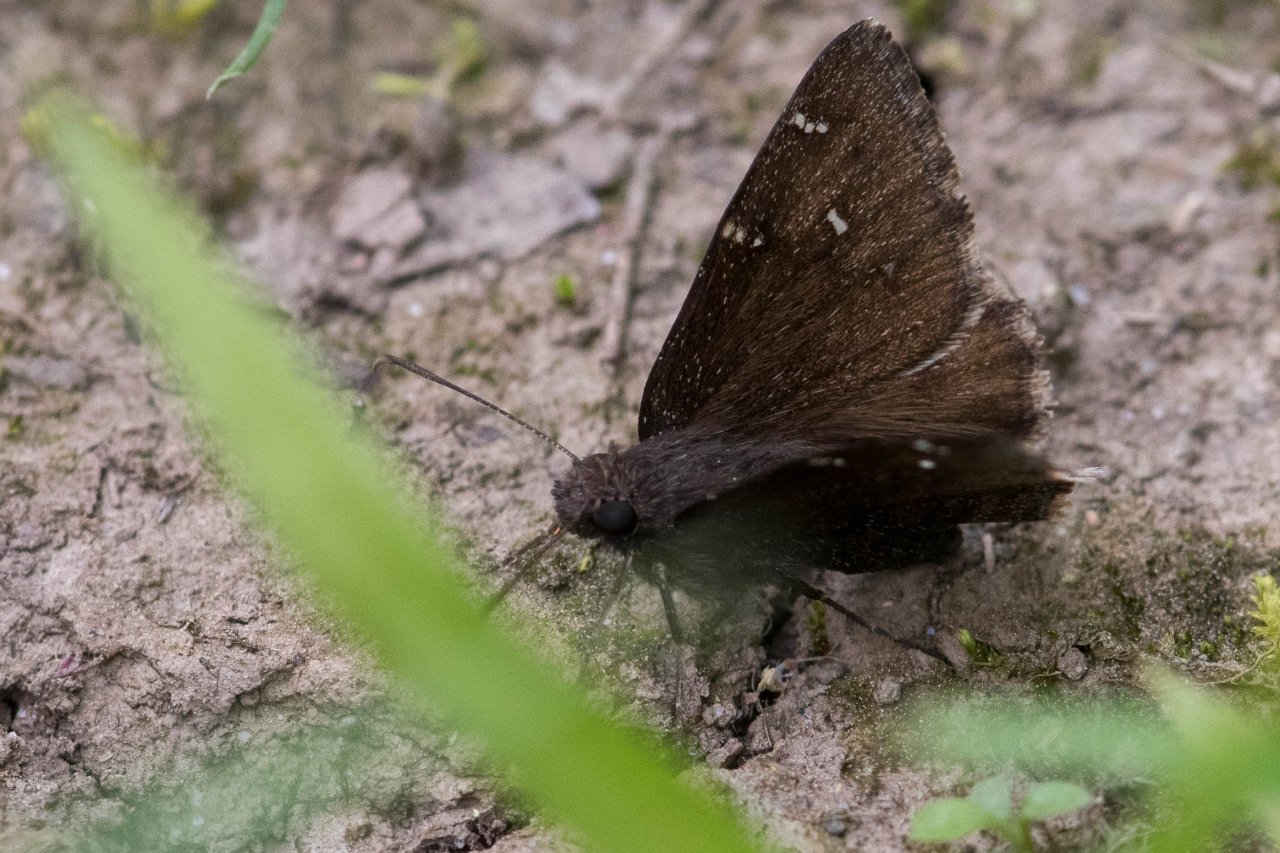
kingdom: Animalia
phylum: Arthropoda
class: Insecta
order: Lepidoptera
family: Hesperiidae
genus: Autochton
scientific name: Autochton
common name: Northern Cloudywing
